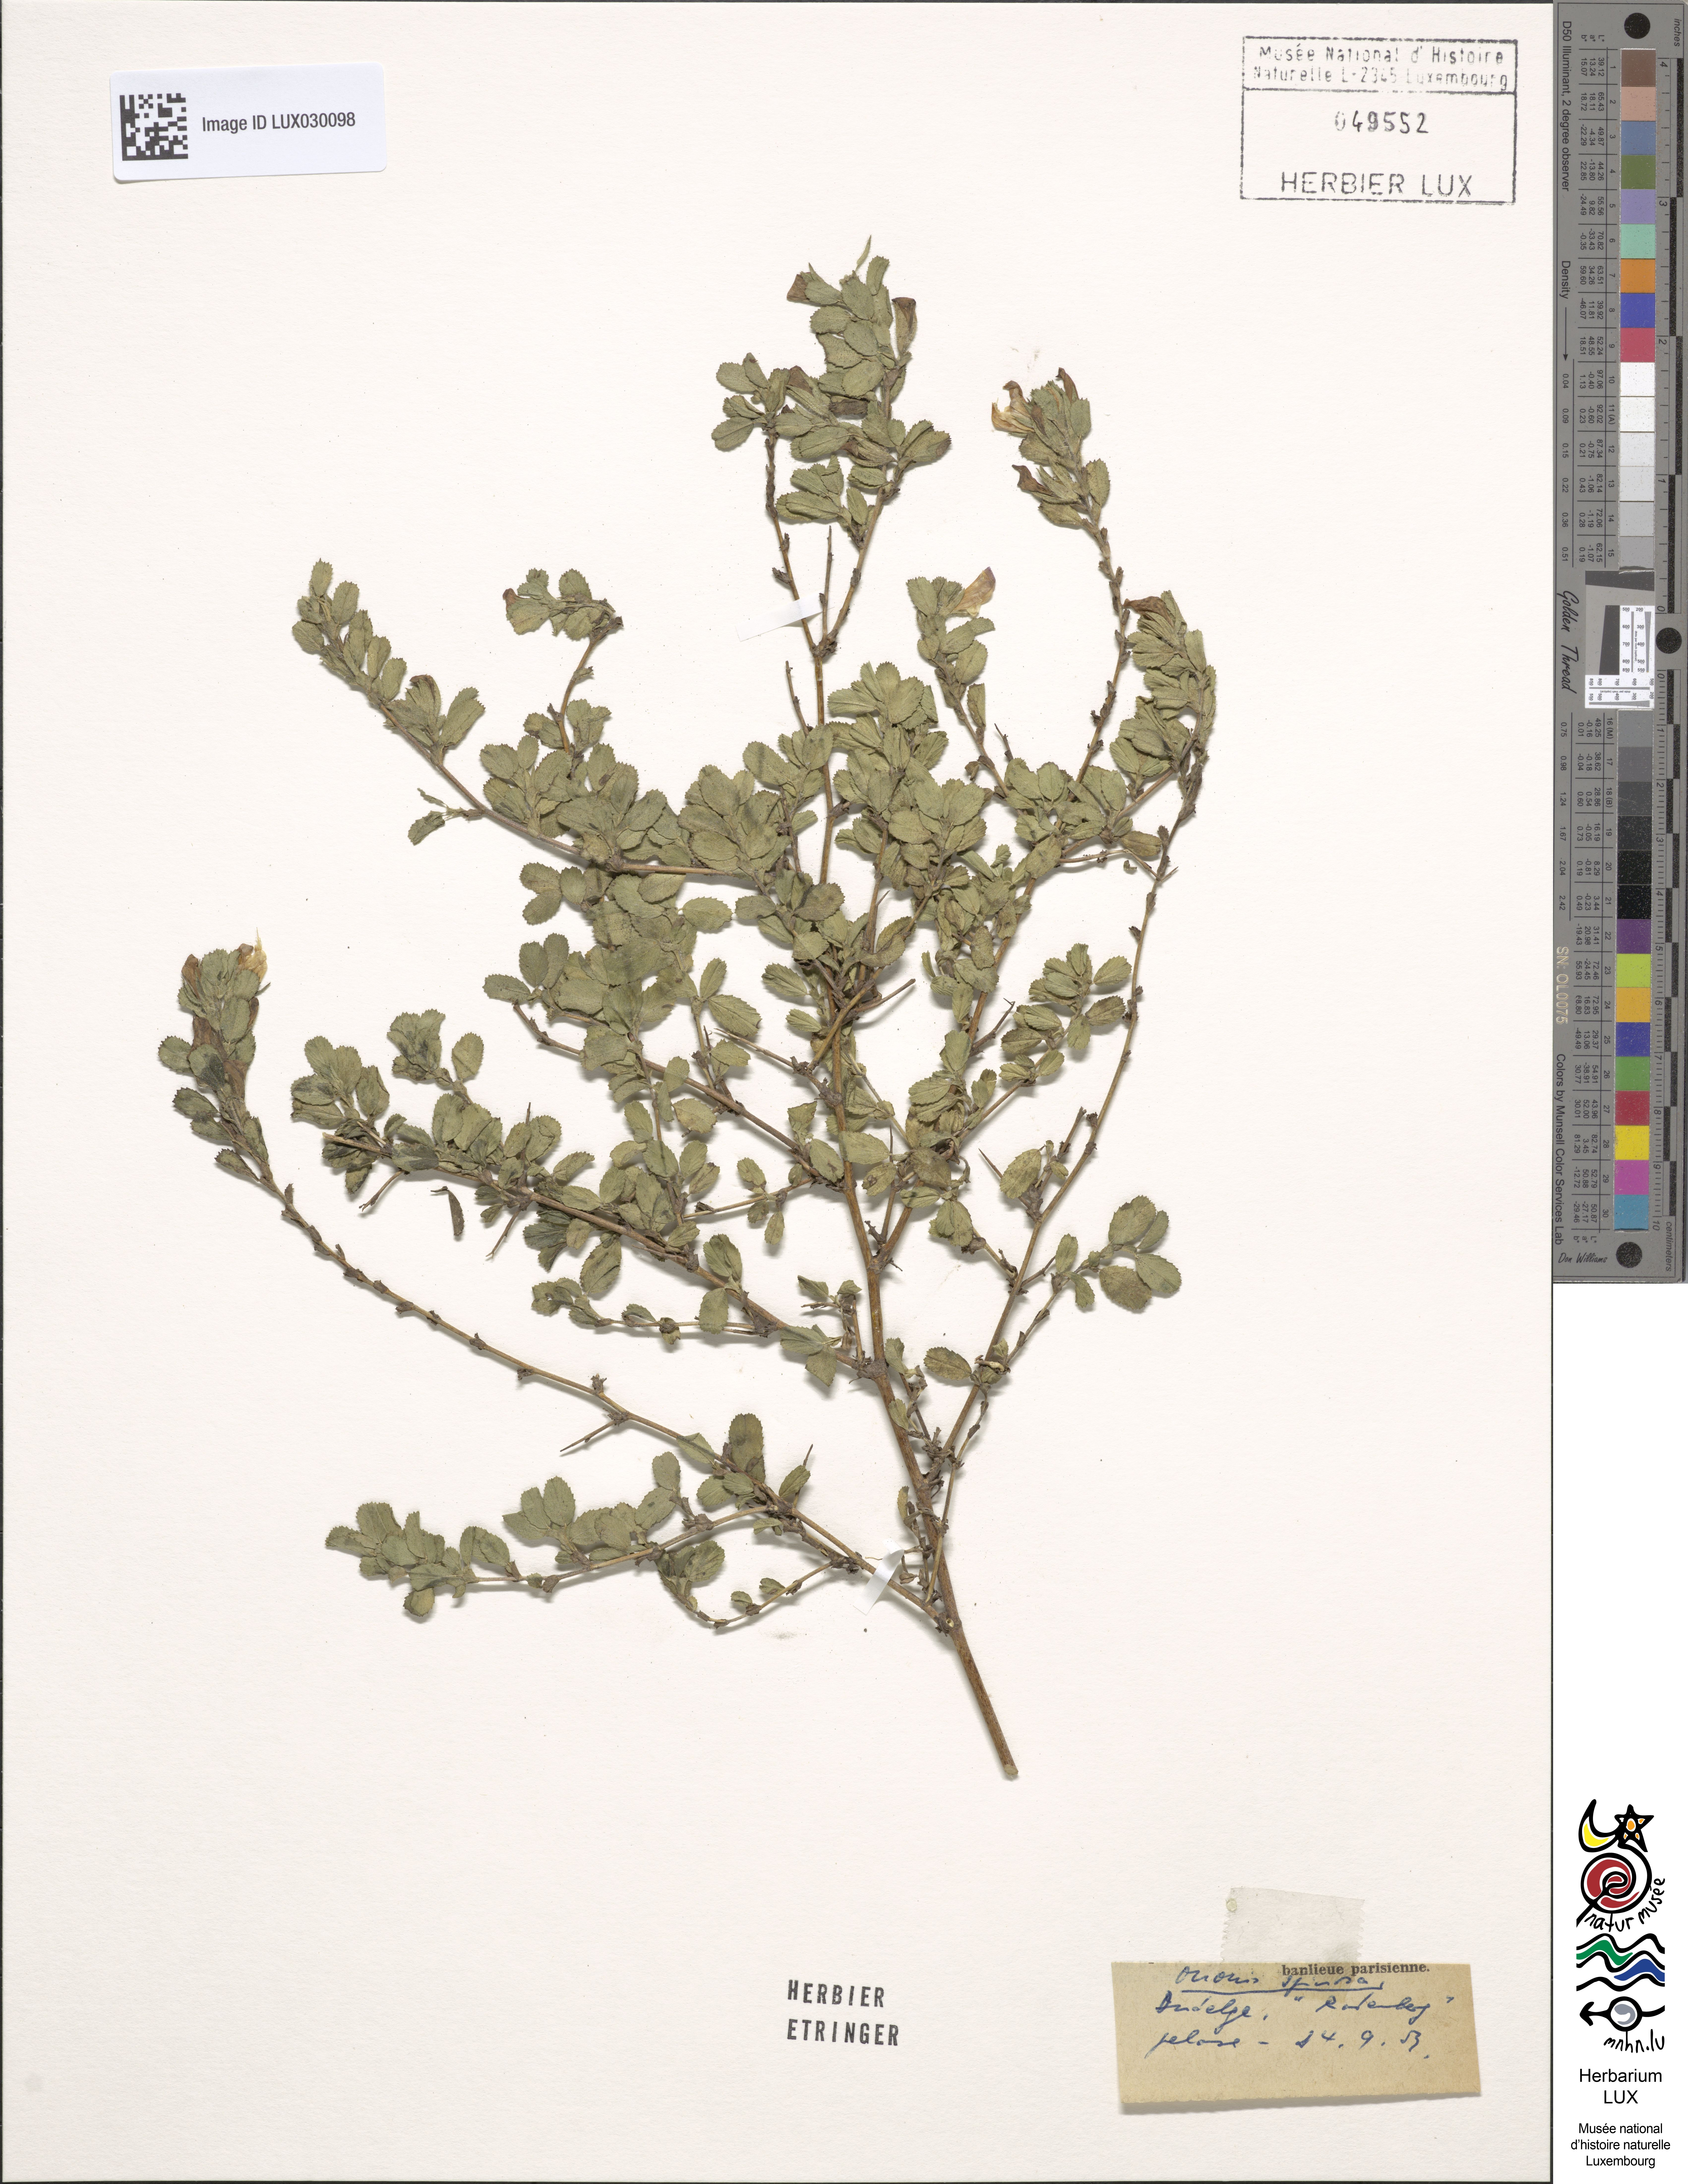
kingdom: Plantae
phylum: Tracheophyta
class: Magnoliopsida
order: Fabales
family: Fabaceae
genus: Ononis
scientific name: Ononis spinosa
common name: Spiny restharrow
